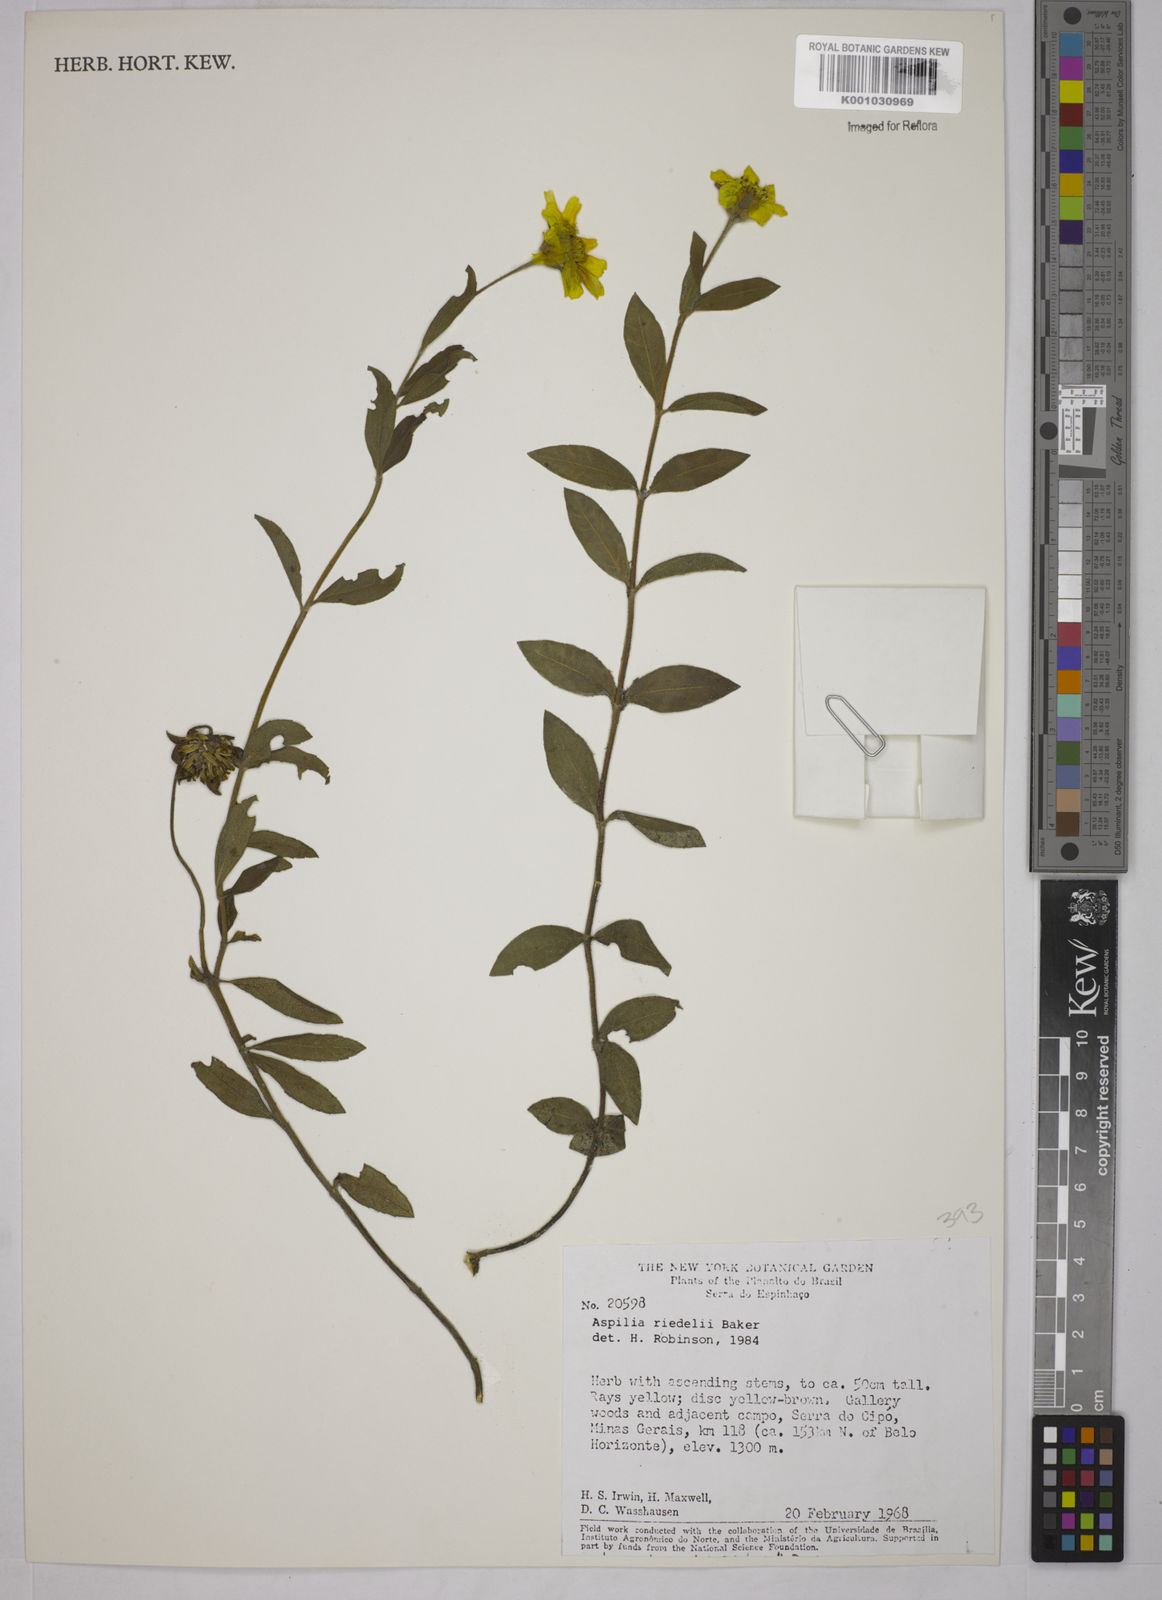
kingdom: Plantae
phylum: Tracheophyta
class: Magnoliopsida
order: Asterales
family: Asteraceae
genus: Wedelia
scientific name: Wedelia riedellii
